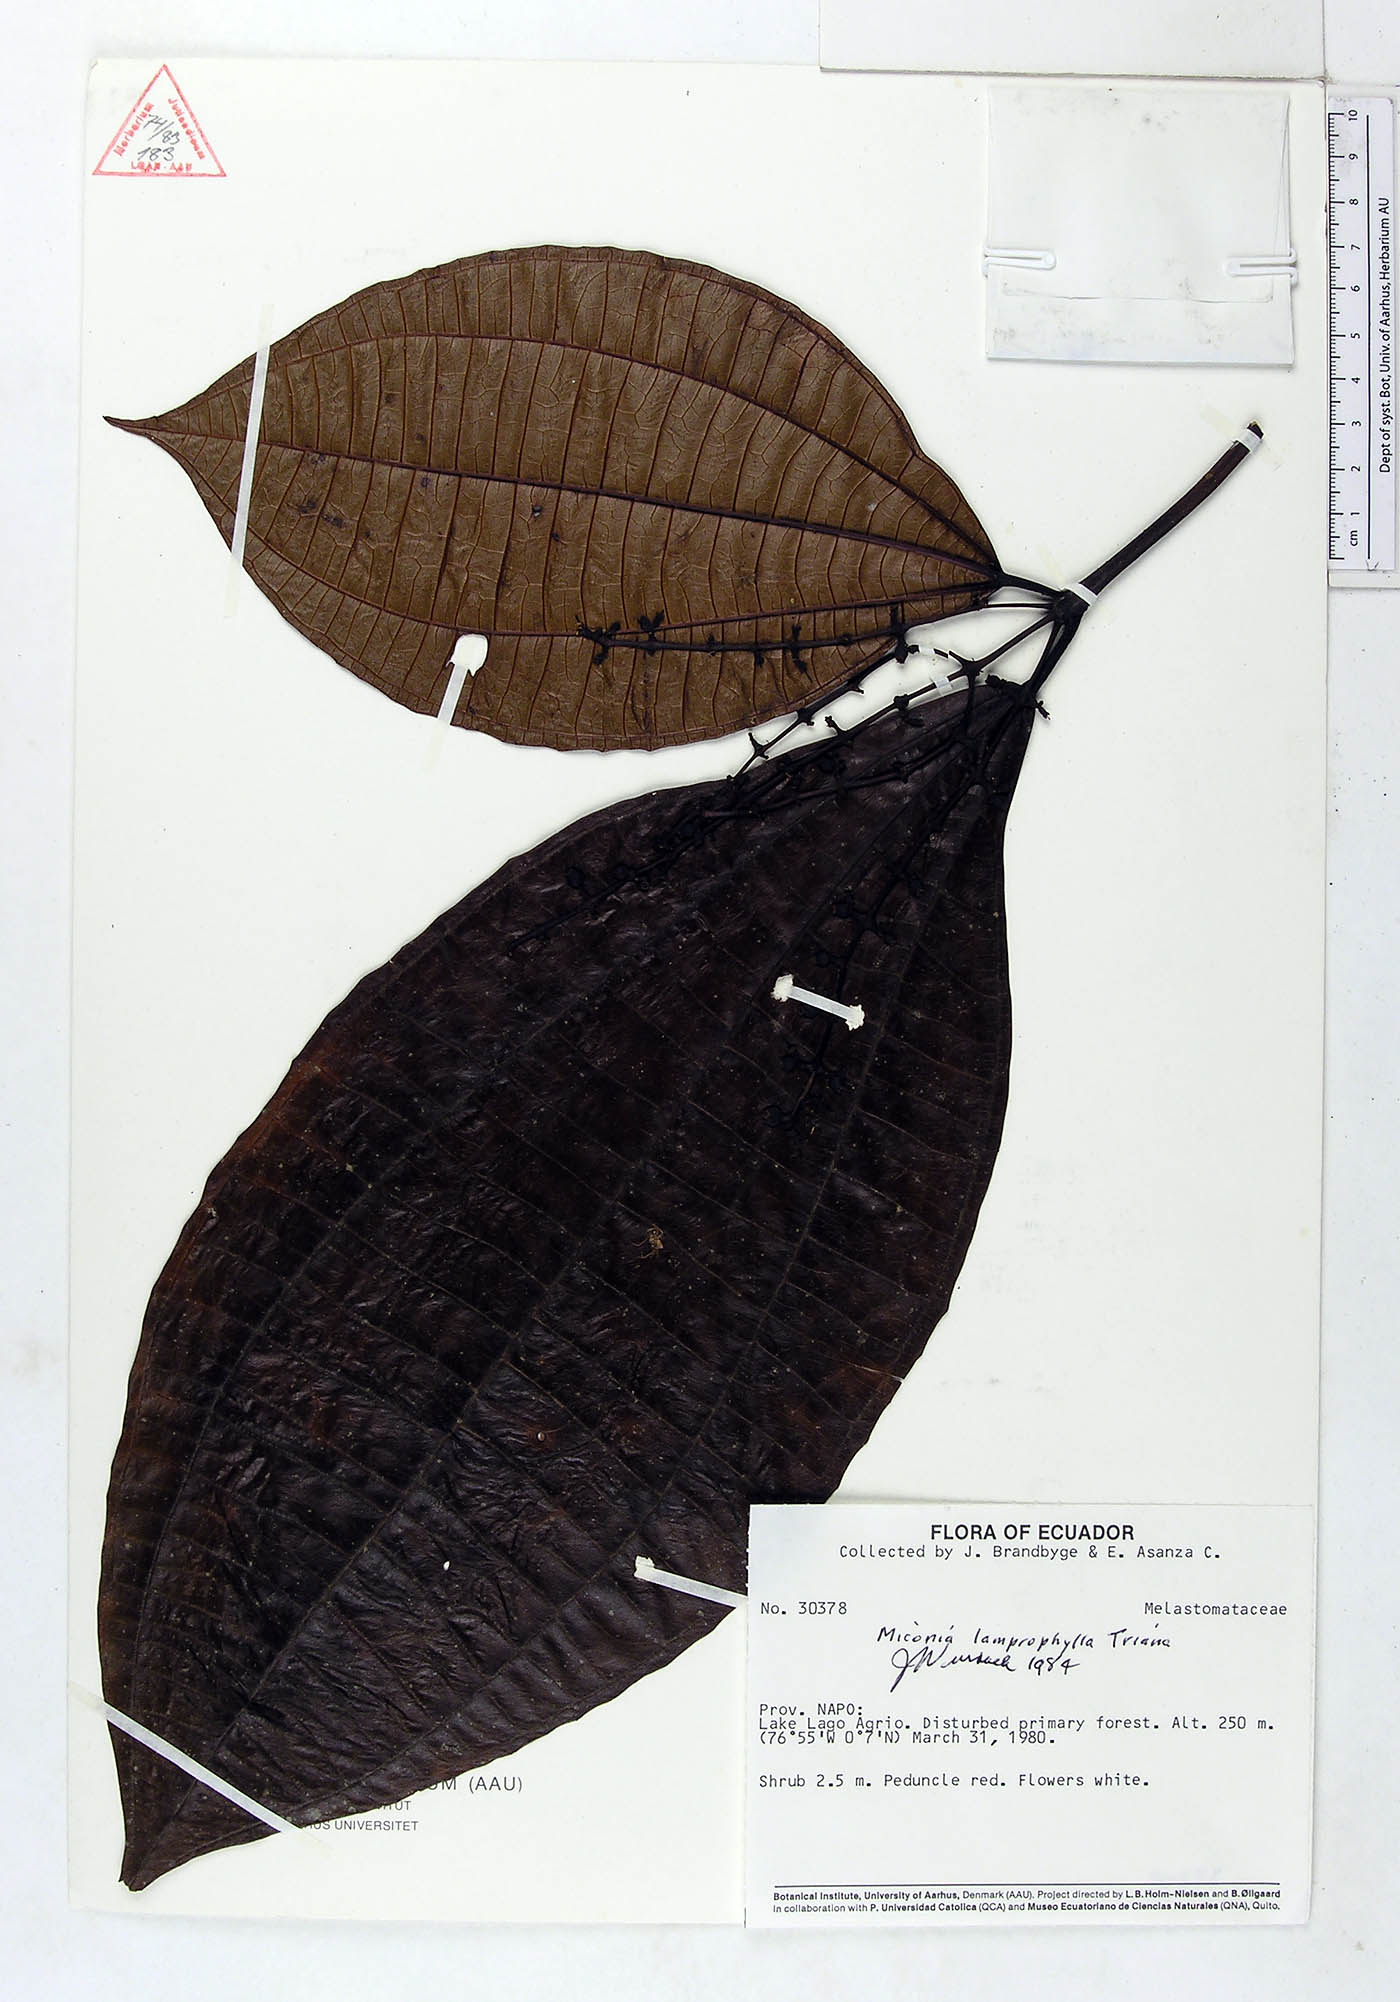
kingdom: Plantae
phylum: Tracheophyta
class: Magnoliopsida
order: Myrtales
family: Melastomataceae
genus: Miconia
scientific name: Miconia lamprophylla
